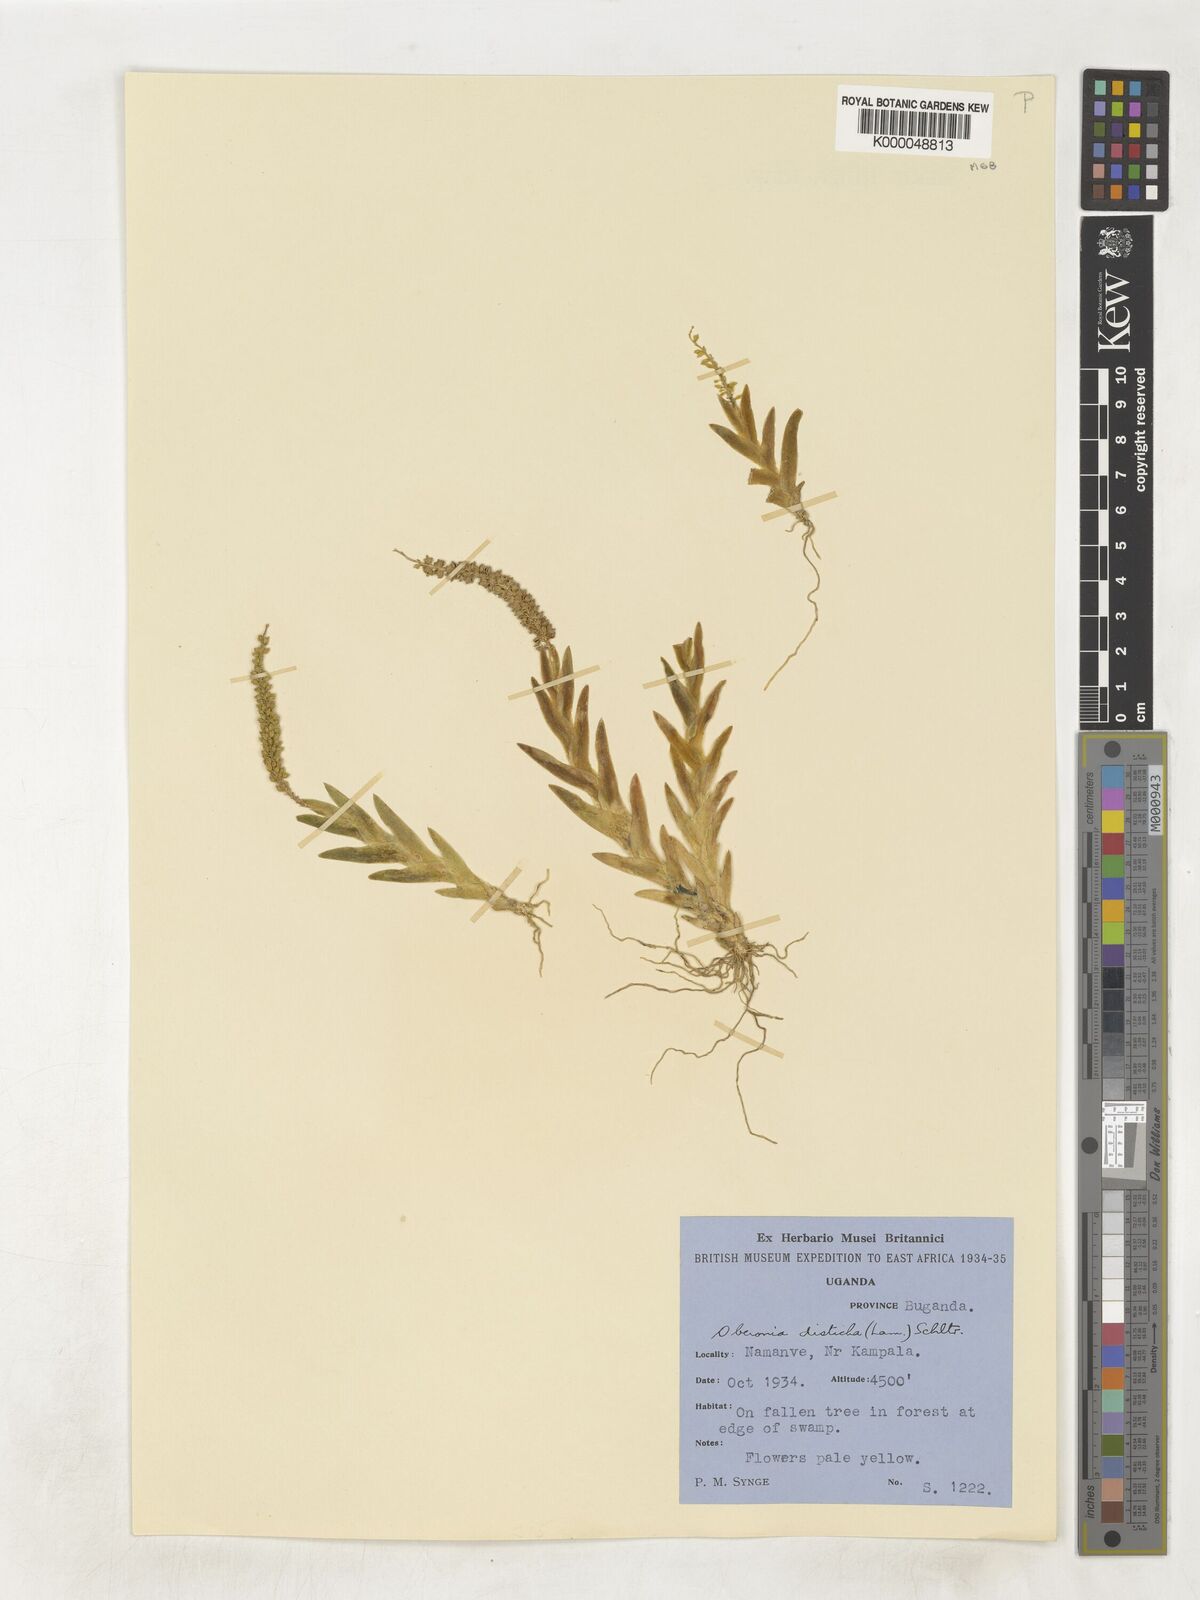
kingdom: Plantae
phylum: Tracheophyta
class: Liliopsida
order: Asparagales
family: Orchidaceae
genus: Oberonia
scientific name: Oberonia disticha
